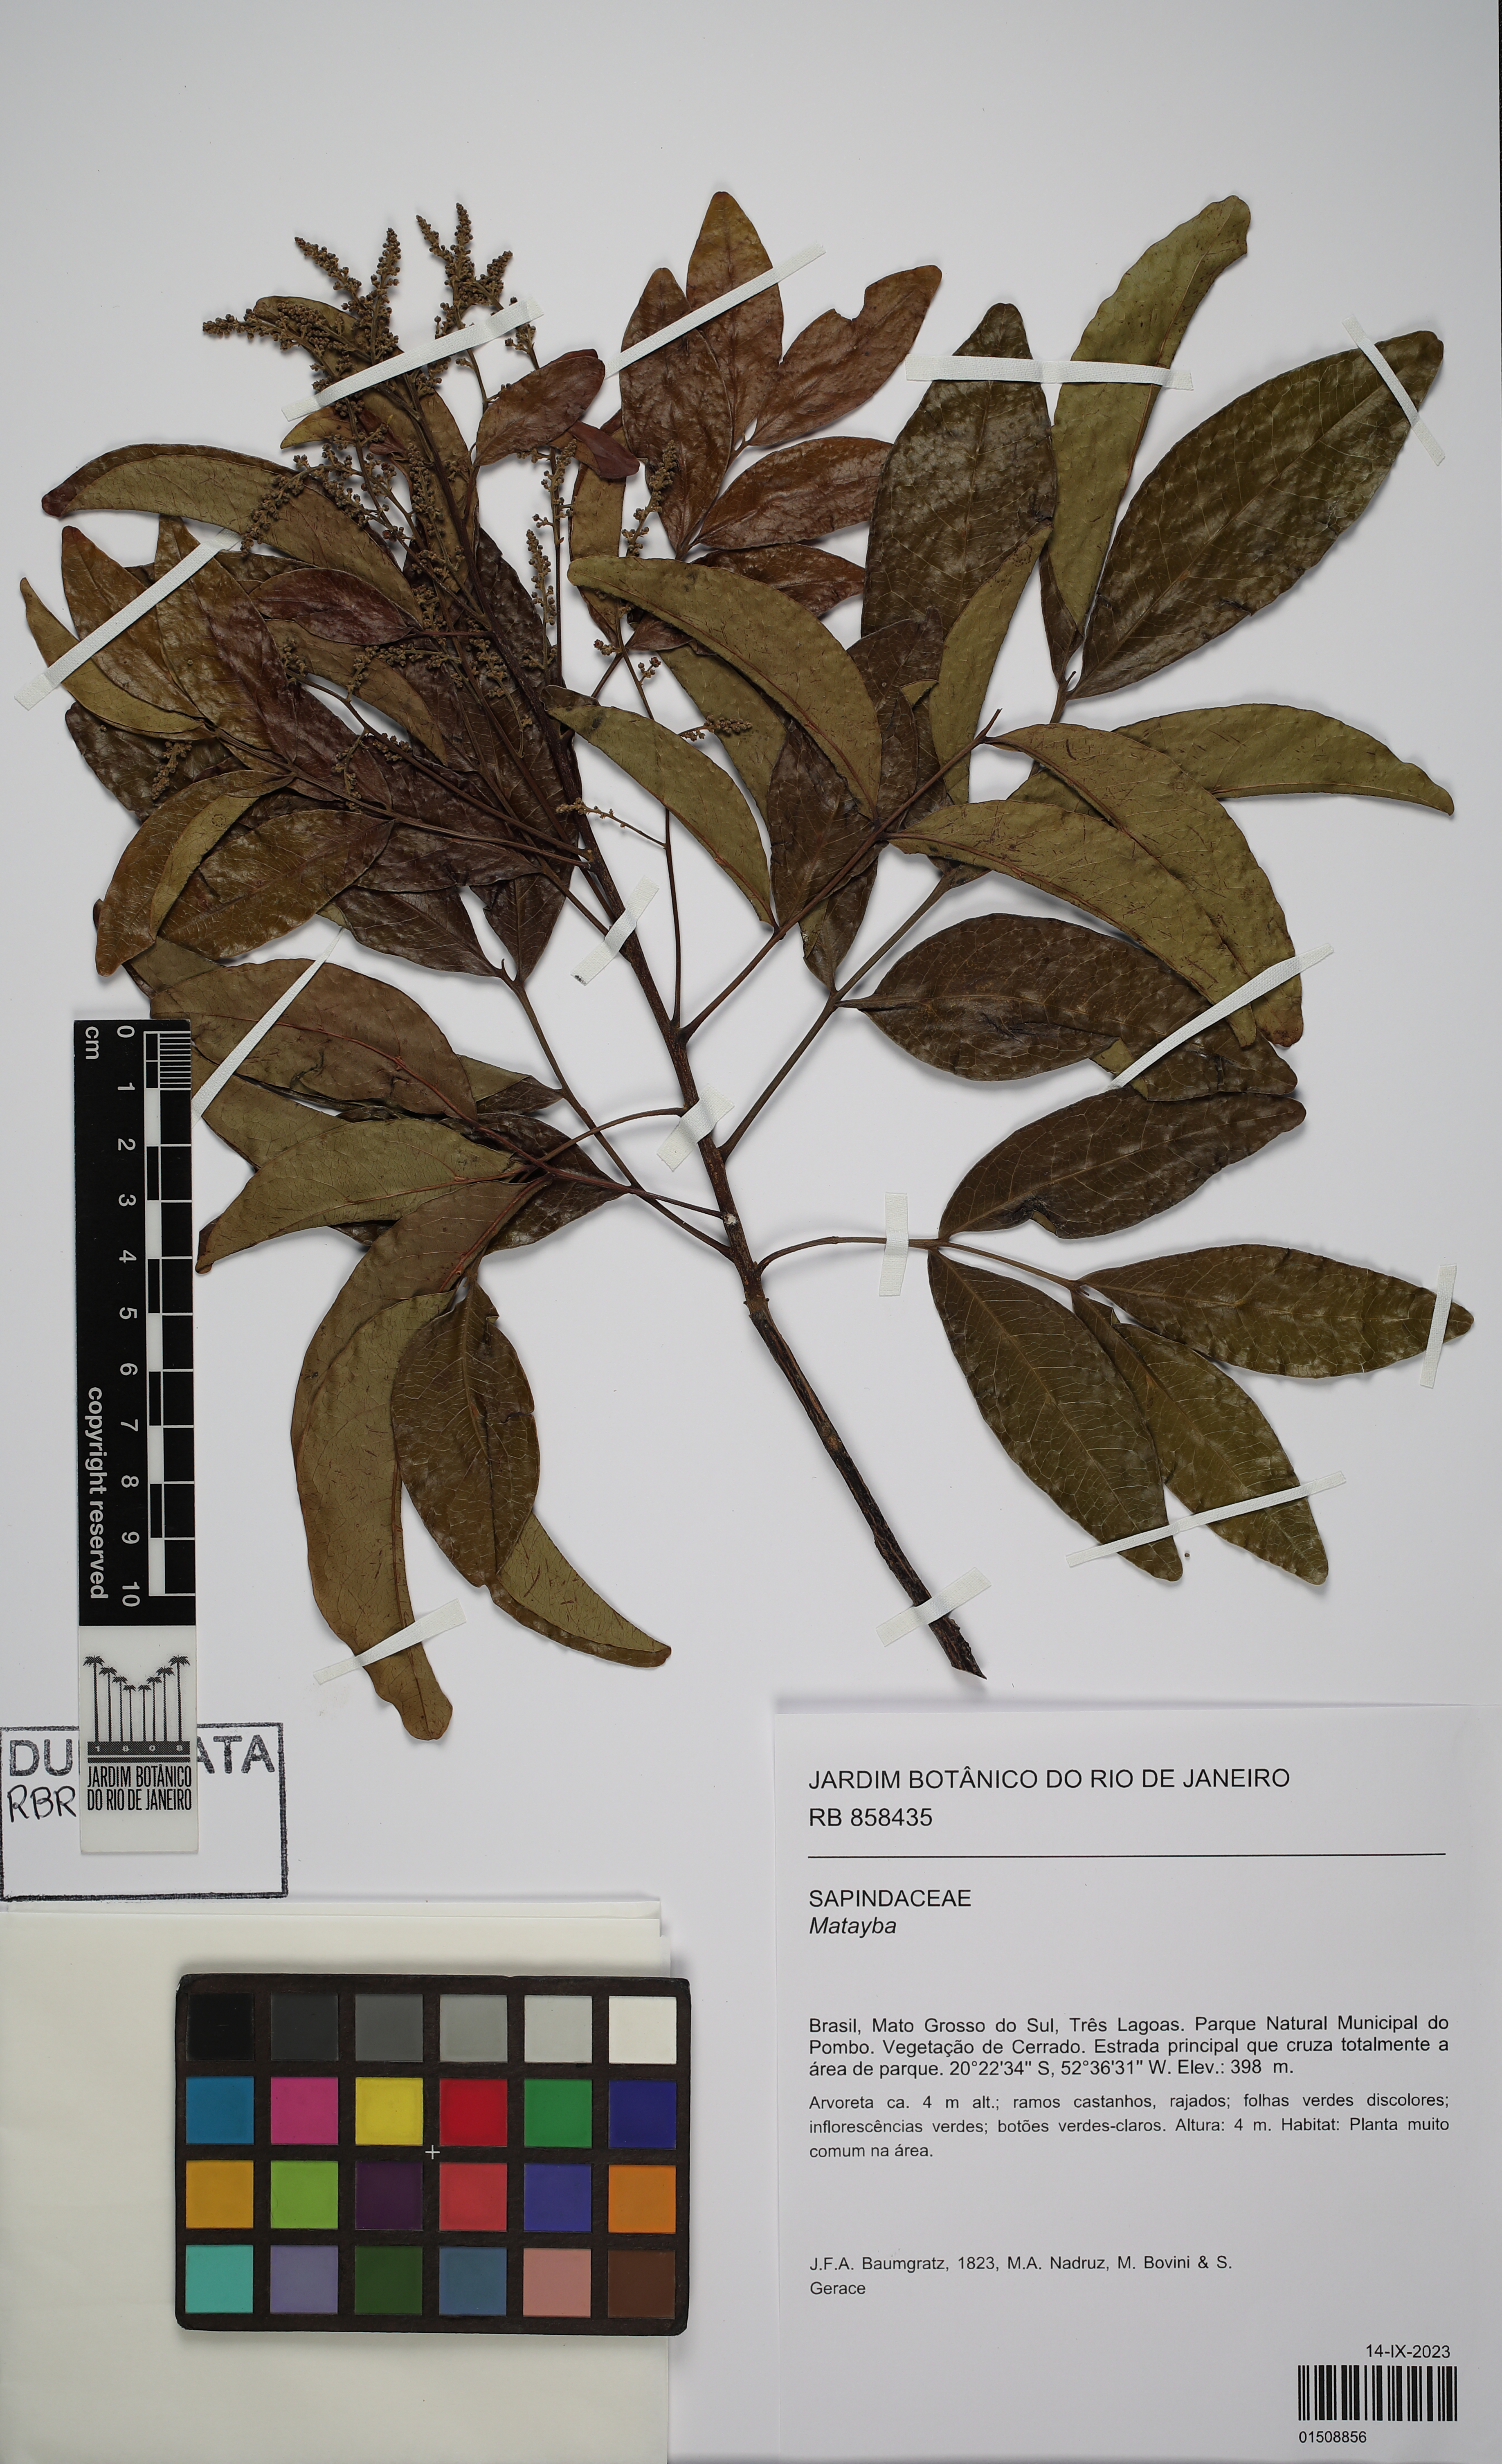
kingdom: Plantae
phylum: Tracheophyta
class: Magnoliopsida
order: Sapindales
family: Sapindaceae
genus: Matayba
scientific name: Matayba
